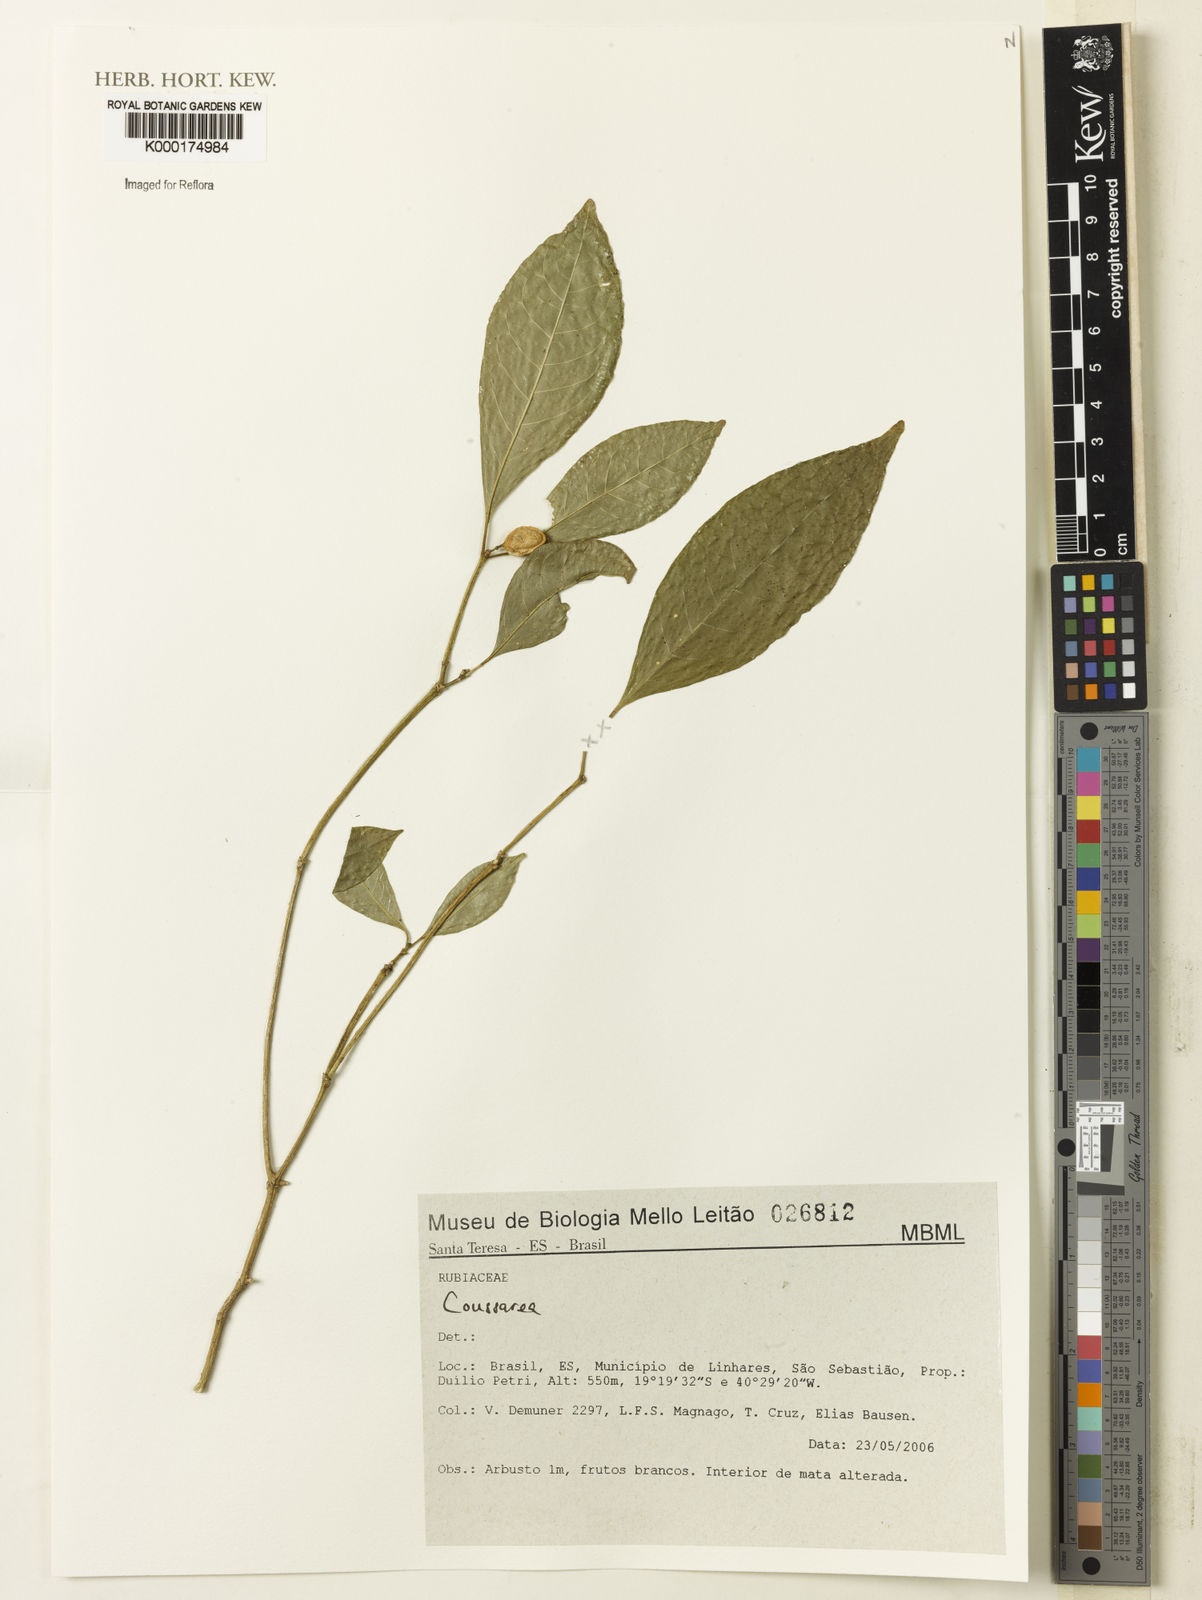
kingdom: Plantae
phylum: Tracheophyta
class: Magnoliopsida
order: Gentianales
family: Rubiaceae
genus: Coussarea
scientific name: Coussarea
